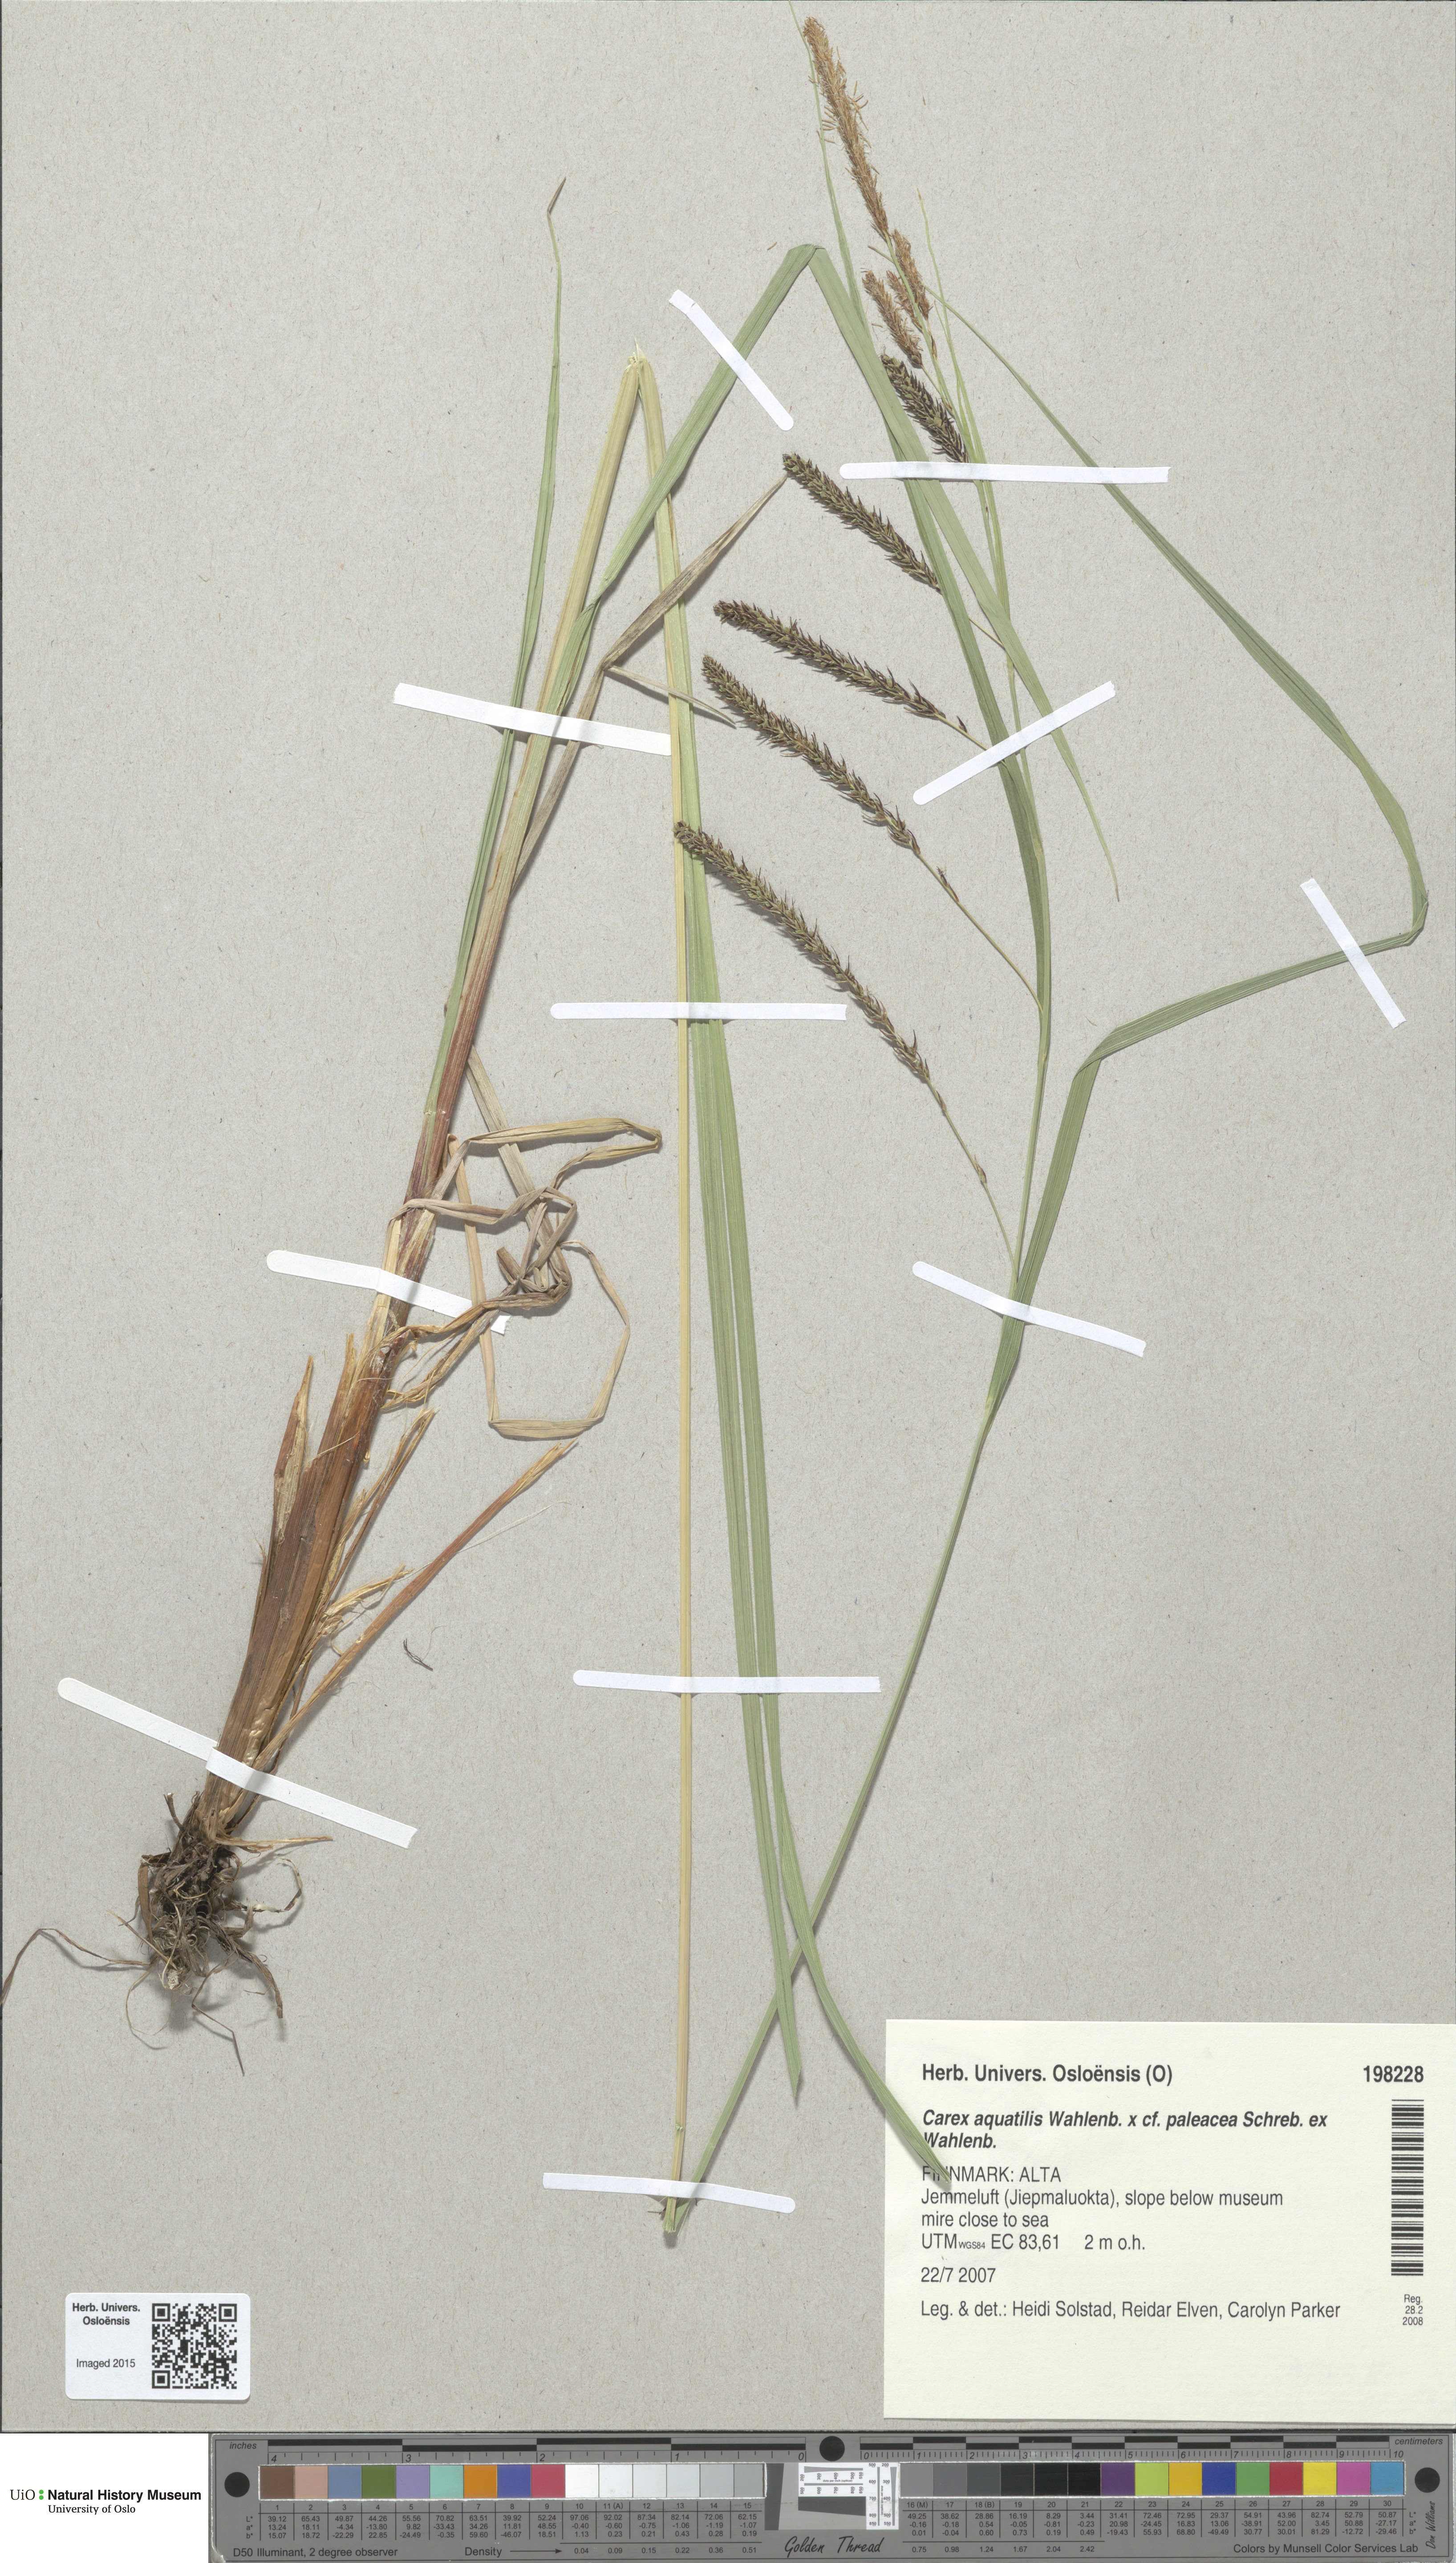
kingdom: Plantae
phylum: Tracheophyta
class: Liliopsida
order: Poales
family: Cyperaceae
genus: Carex
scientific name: Carex
